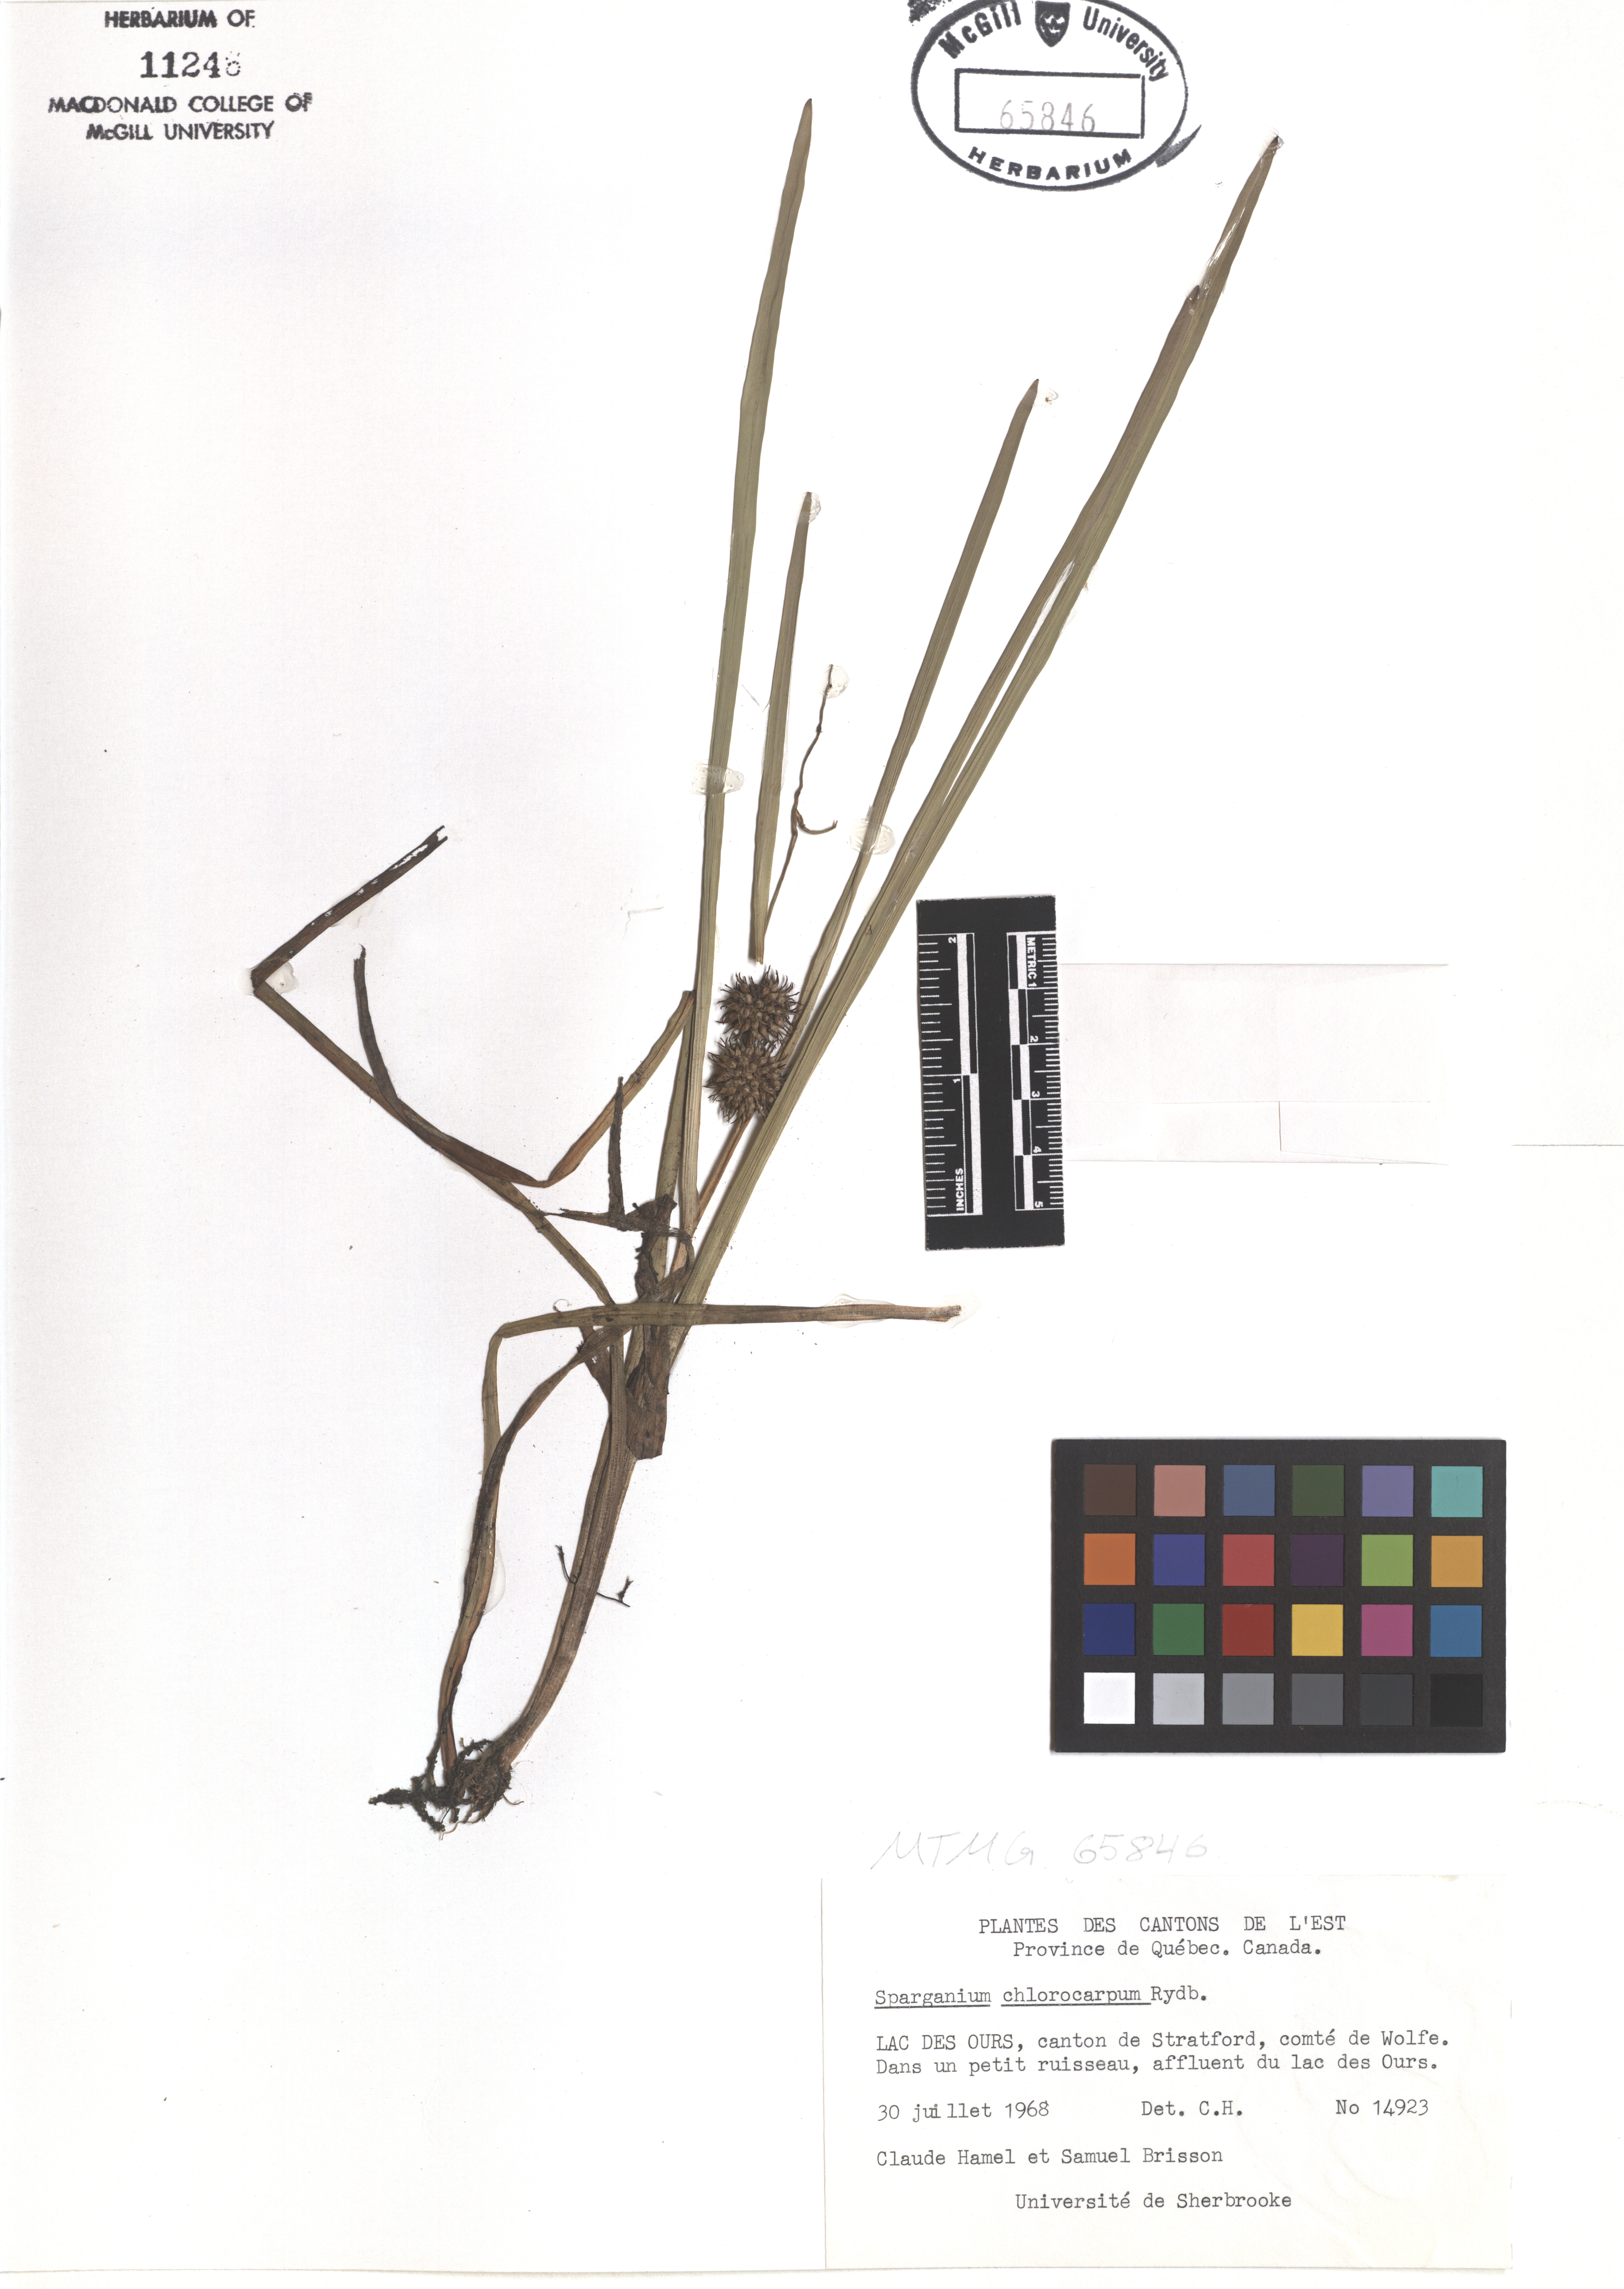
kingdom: Plantae
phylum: Tracheophyta
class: Liliopsida
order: Poales
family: Typhaceae
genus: Sparganium
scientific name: Sparganium emersum
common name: Unbranched bur-reed
